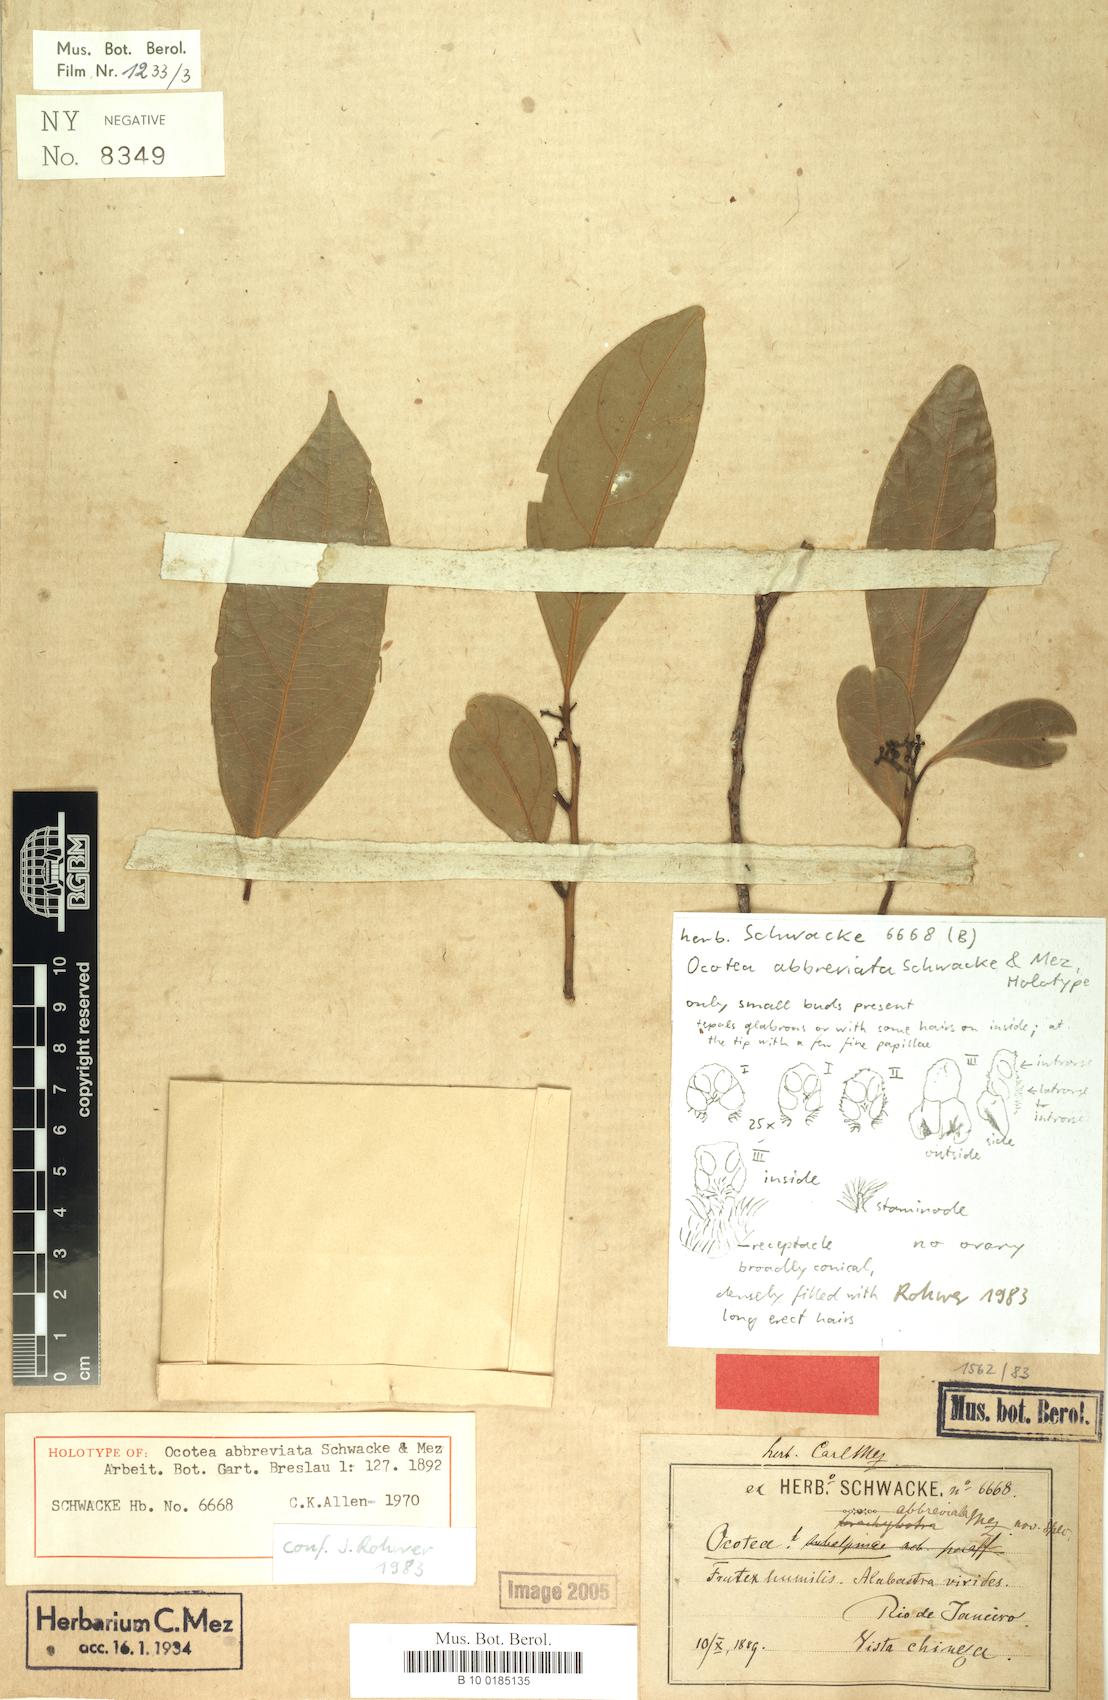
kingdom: Plantae
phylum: Tracheophyta
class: Magnoliopsida
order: Laurales
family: Lauraceae
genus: Ocotea
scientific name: Ocotea abbreviata
